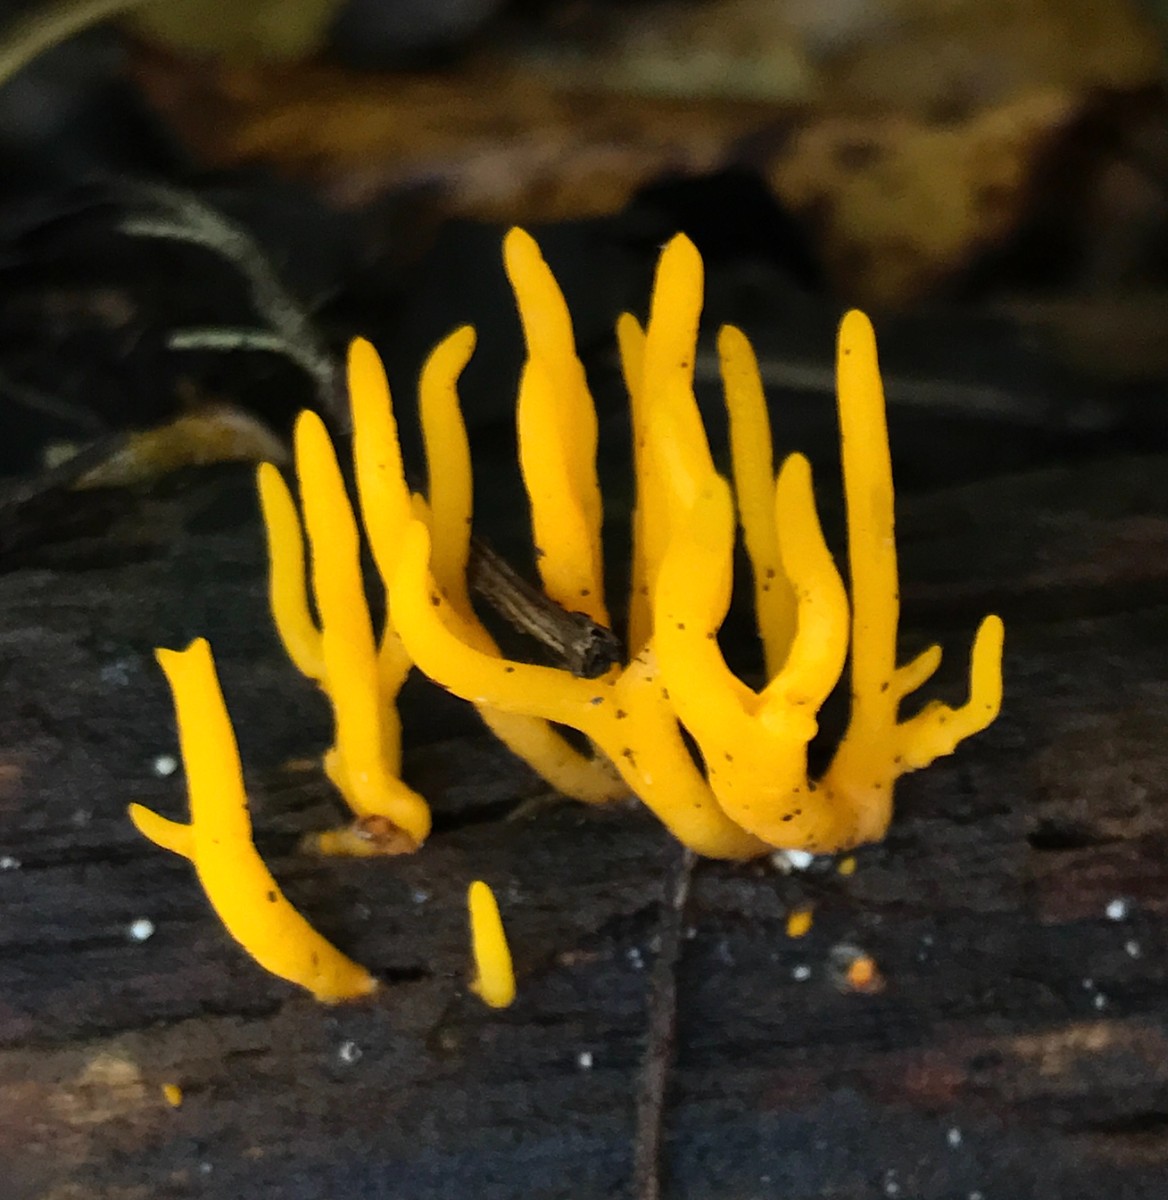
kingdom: Fungi
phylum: Basidiomycota
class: Dacrymycetes
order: Dacrymycetales
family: Dacrymycetaceae
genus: Calocera
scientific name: Calocera viscosa
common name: almindelig guldgaffel
